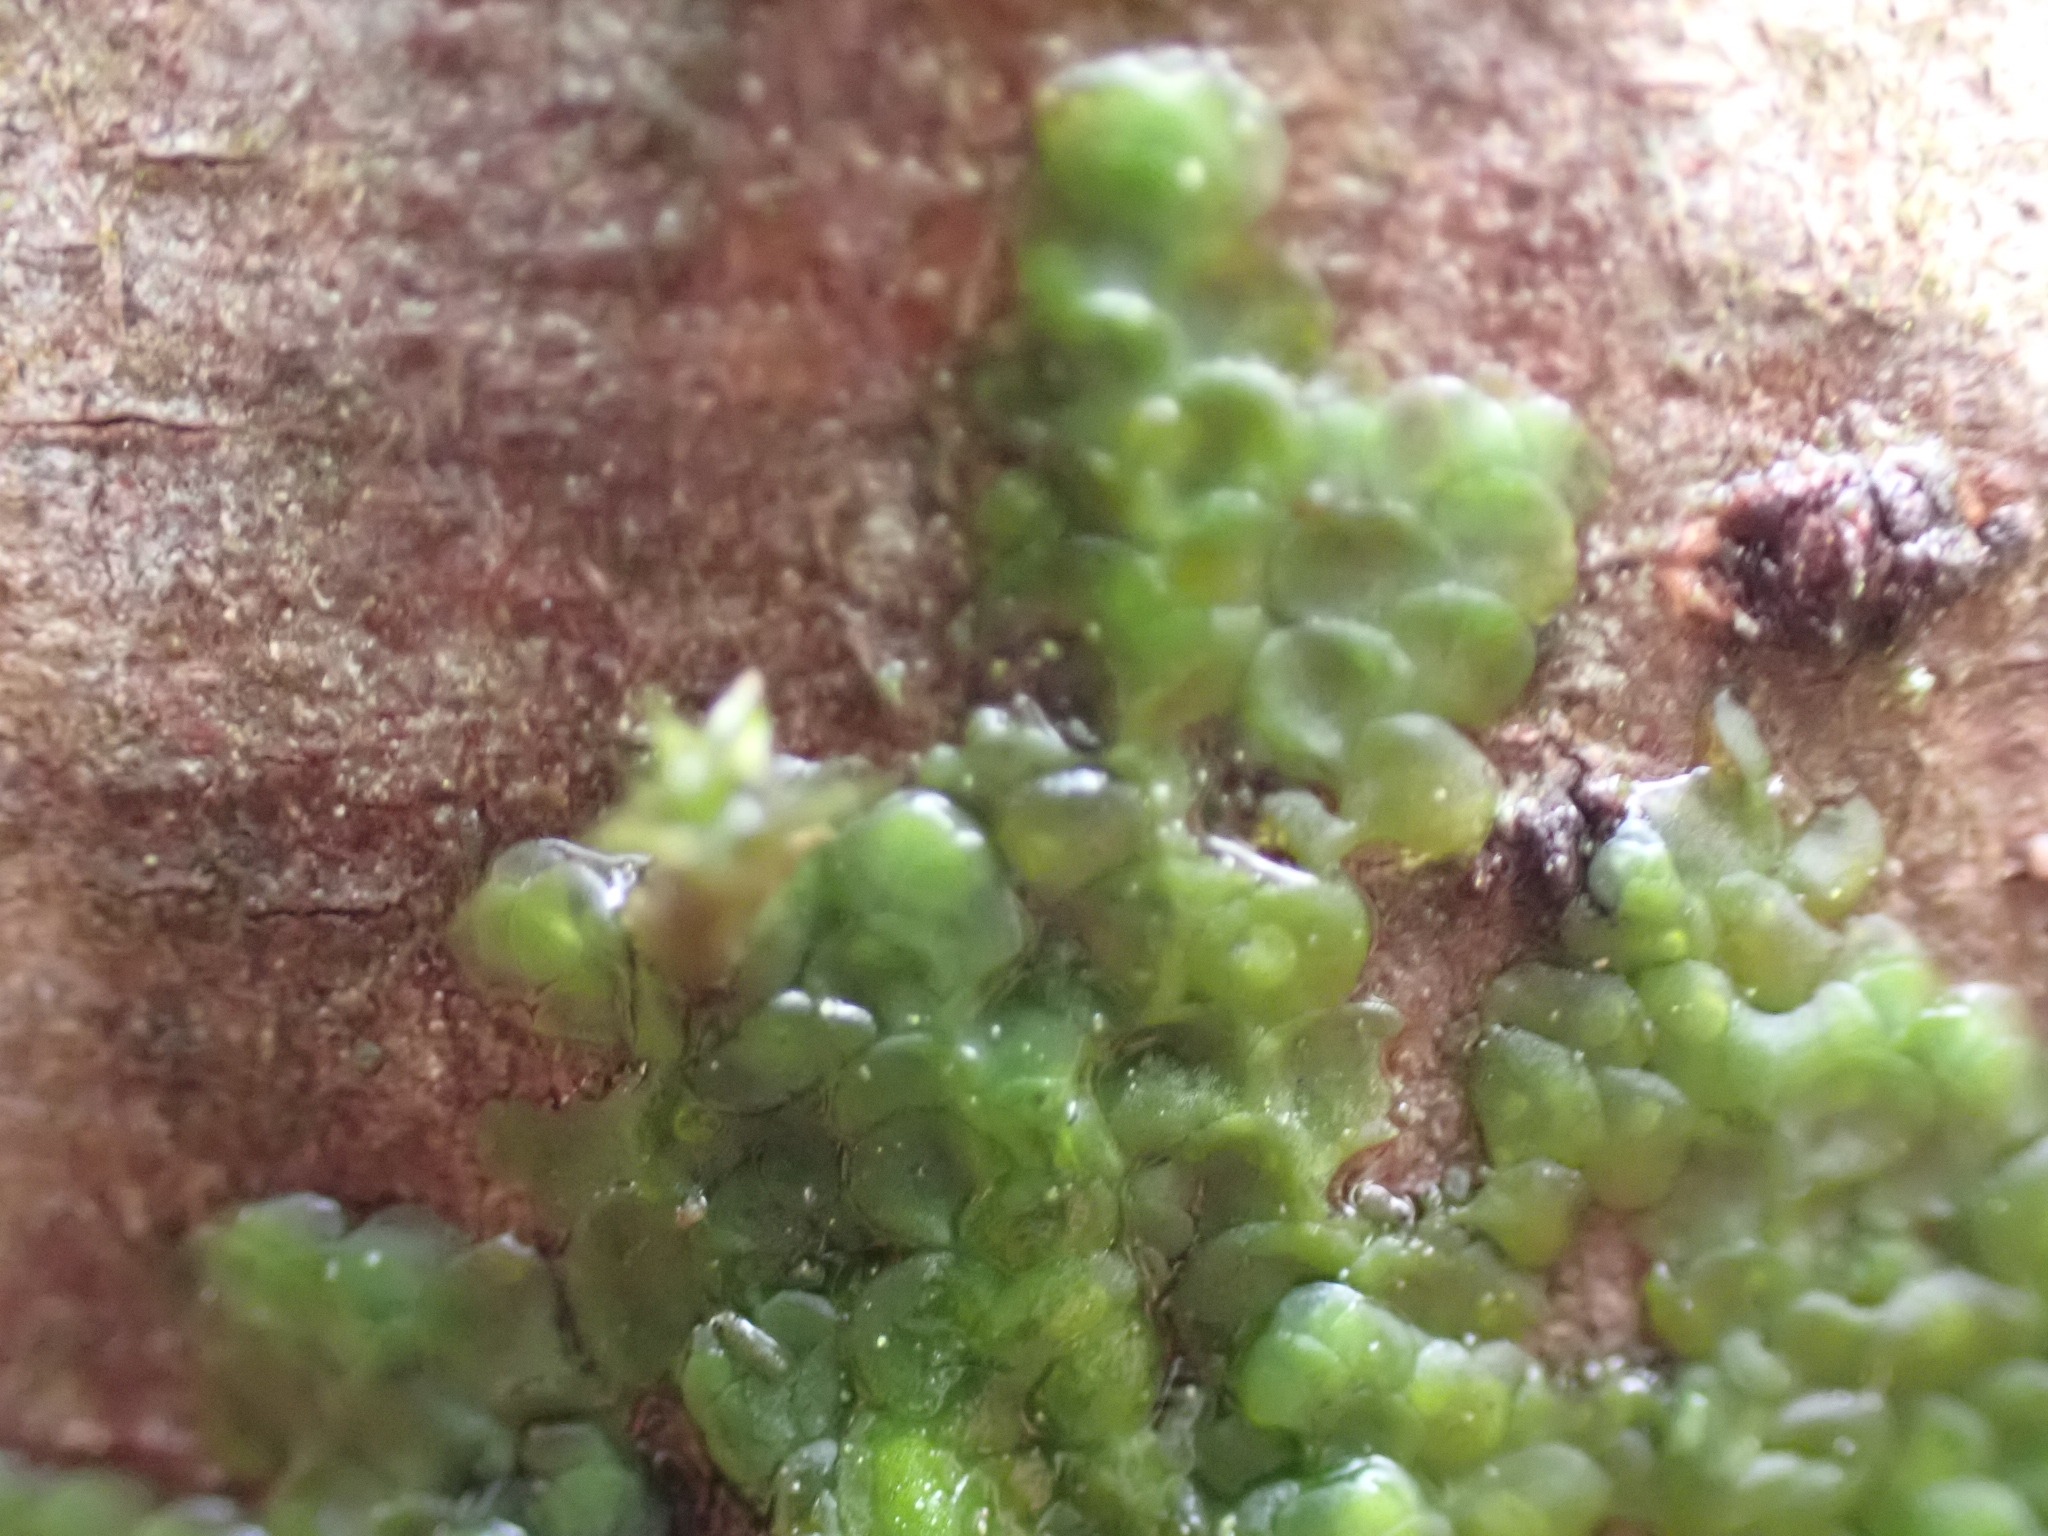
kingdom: Plantae
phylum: Marchantiophyta
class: Jungermanniopsida
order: Porellales
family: Radulaceae
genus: Radula
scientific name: Radula complanata
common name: Almindelig spartelmos
